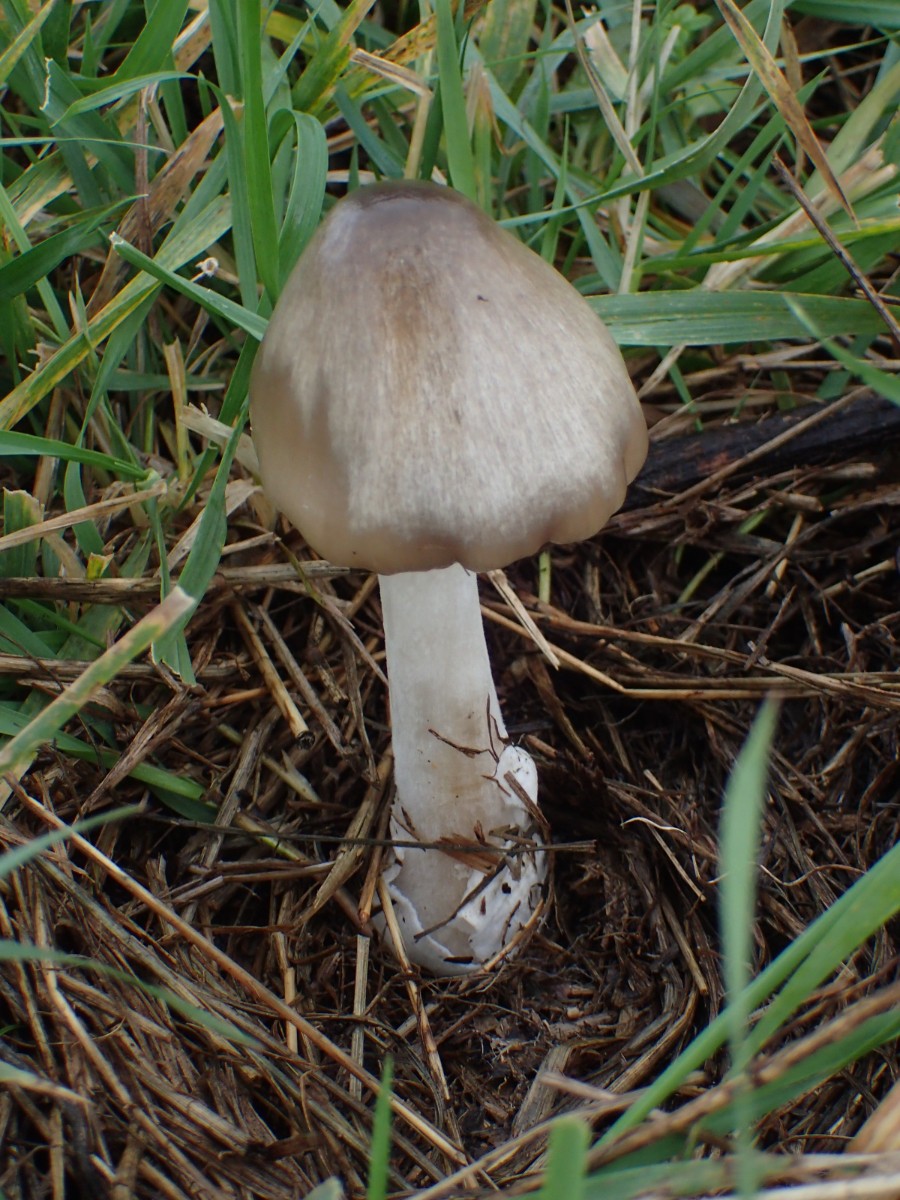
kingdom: Fungi
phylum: Basidiomycota
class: Agaricomycetes
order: Agaricales
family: Pluteaceae
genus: Volvopluteus
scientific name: Volvopluteus gloiocephalus
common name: høj posesvamp
